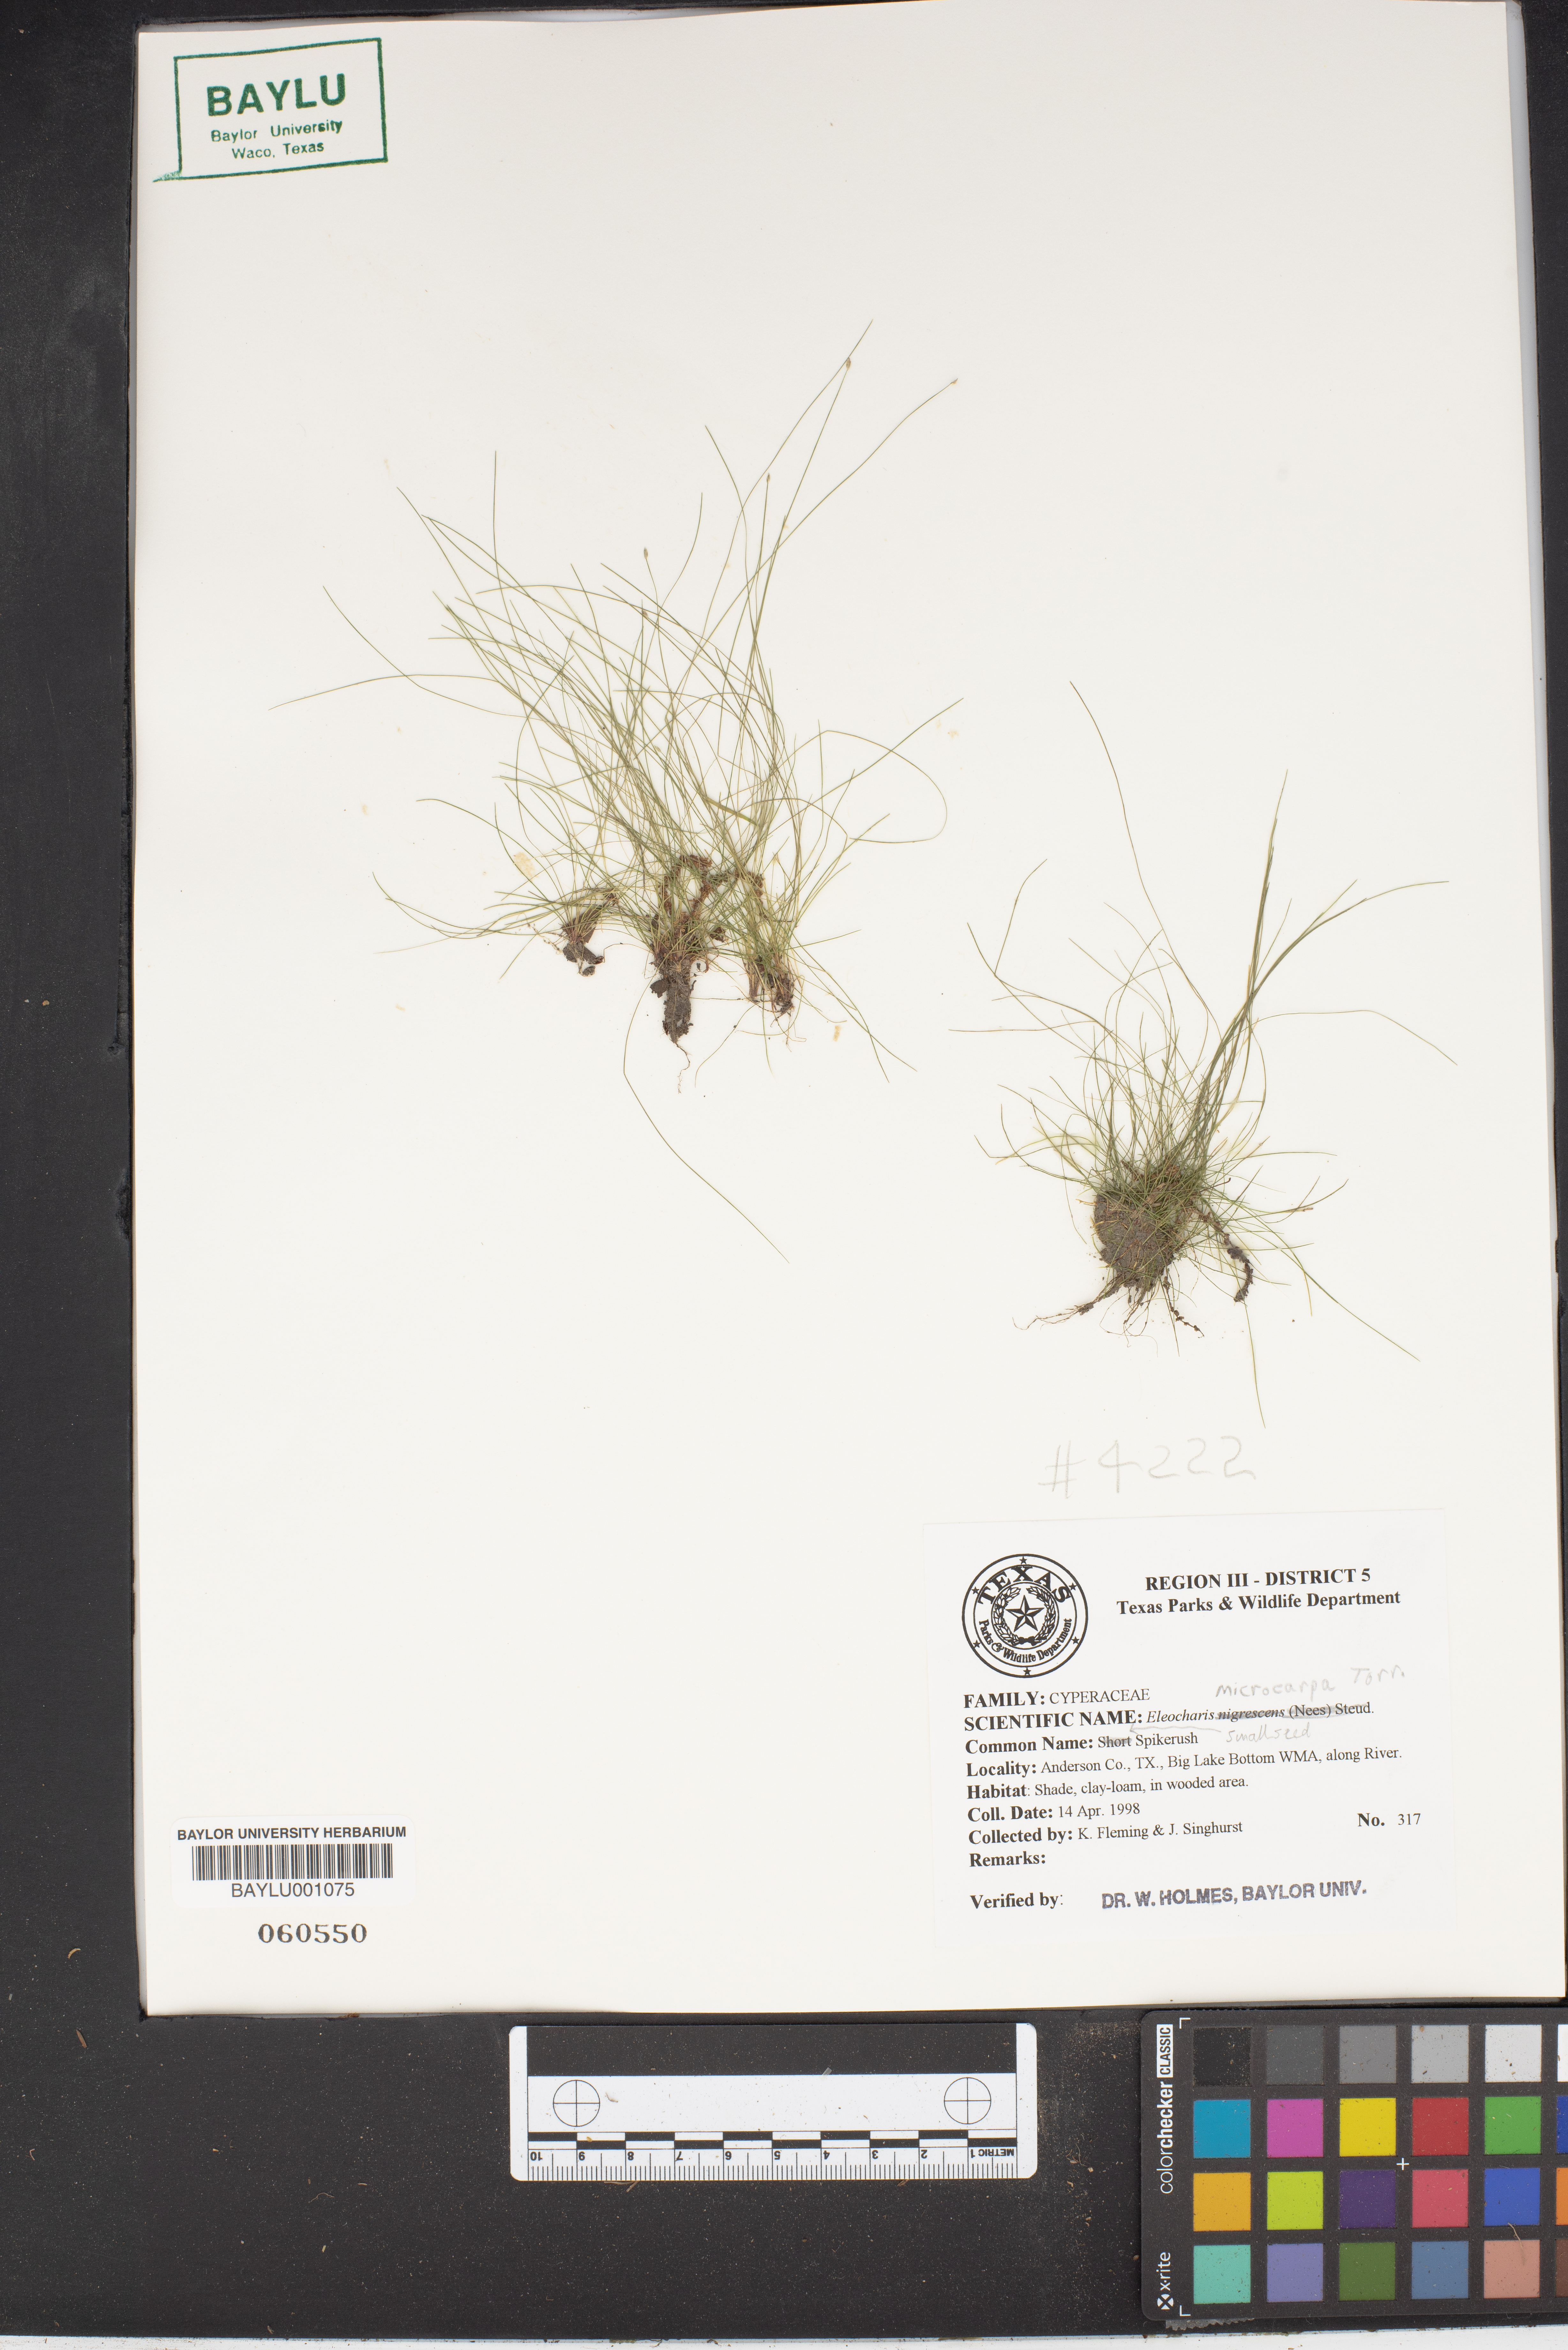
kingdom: Plantae
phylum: Tracheophyta
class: Liliopsida
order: Poales
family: Cyperaceae
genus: Eleocharis
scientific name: Eleocharis microcarpa
